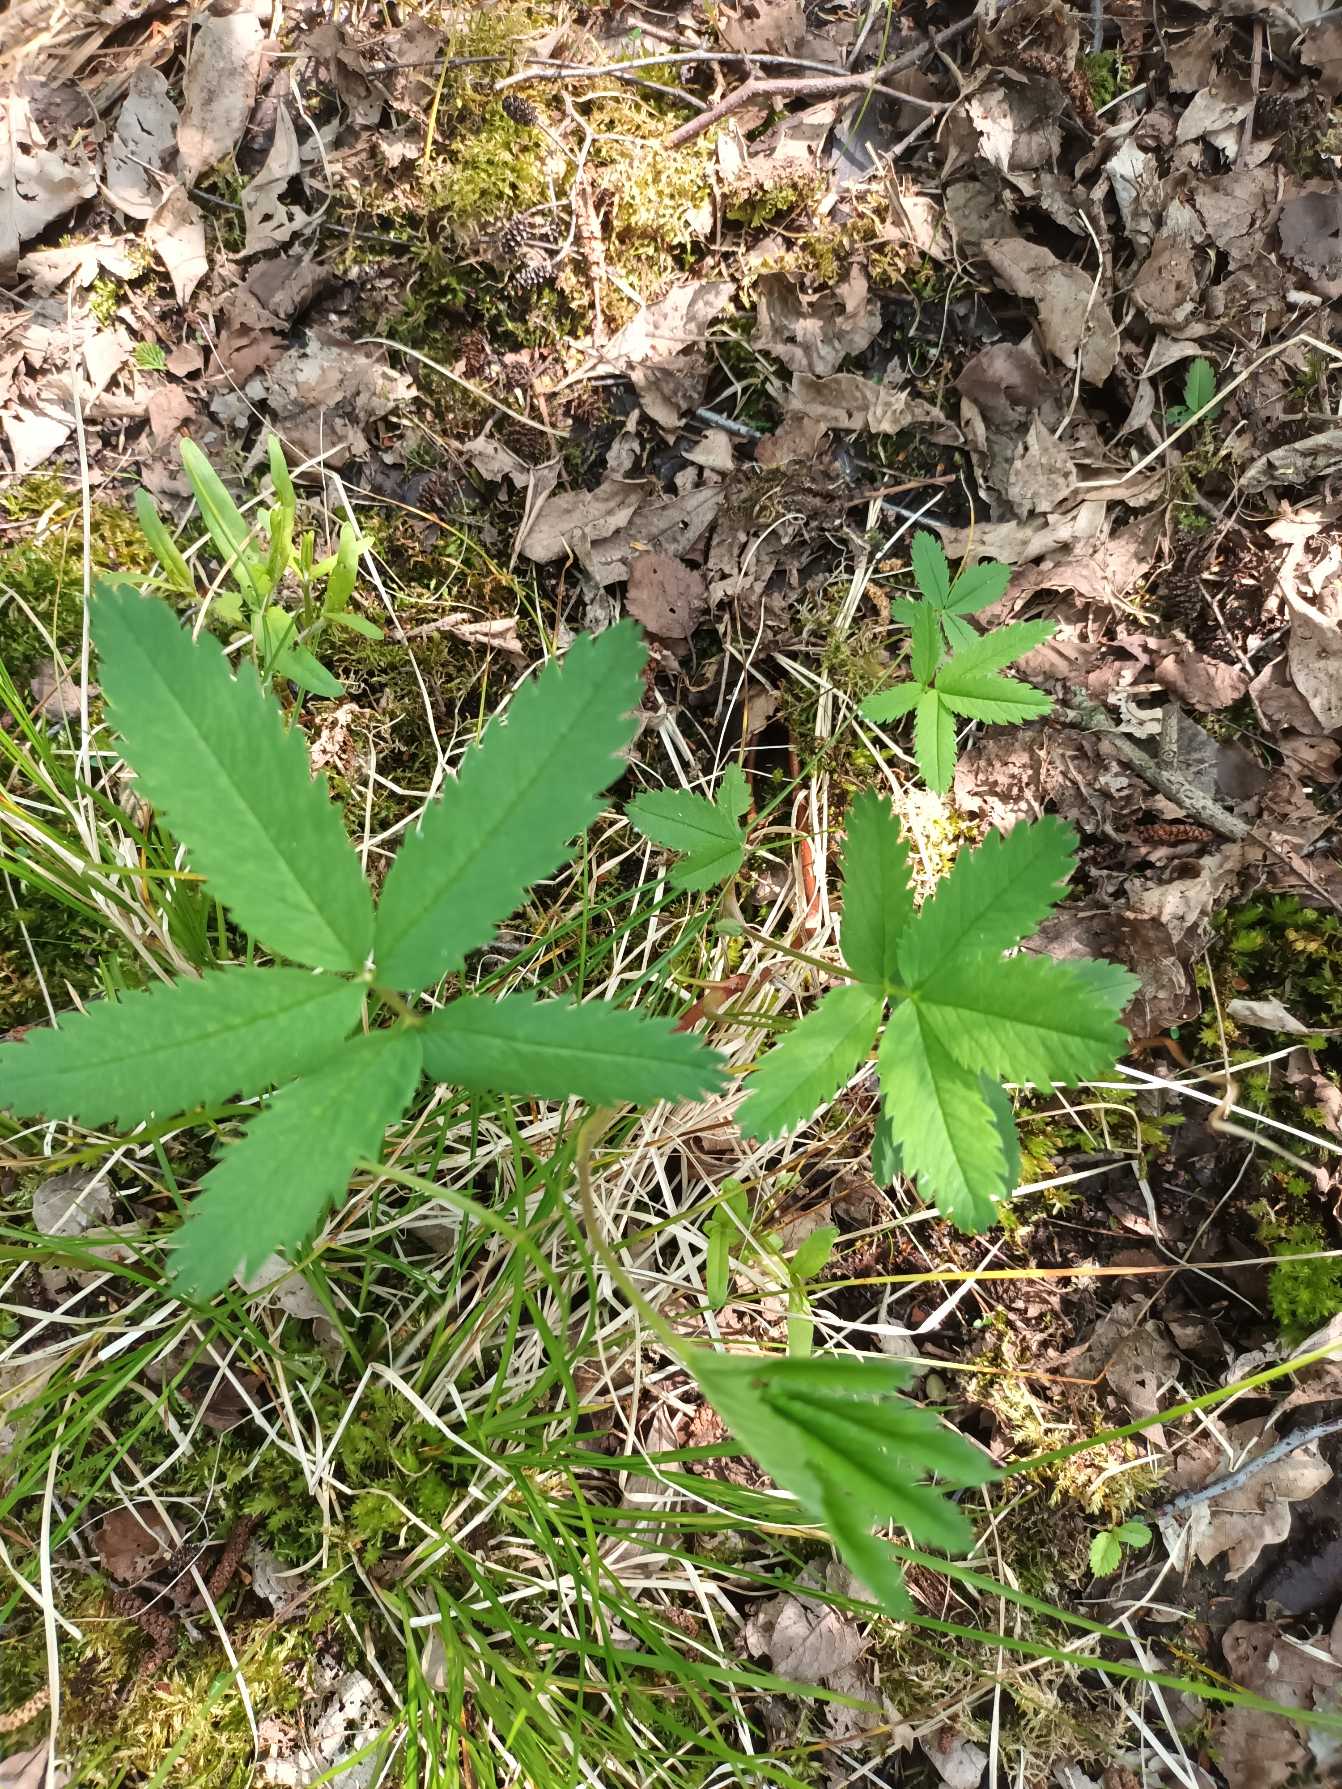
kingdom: Plantae
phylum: Tracheophyta
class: Magnoliopsida
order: Rosales
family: Rosaceae
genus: Comarum
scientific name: Comarum palustre
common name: Kragefod
